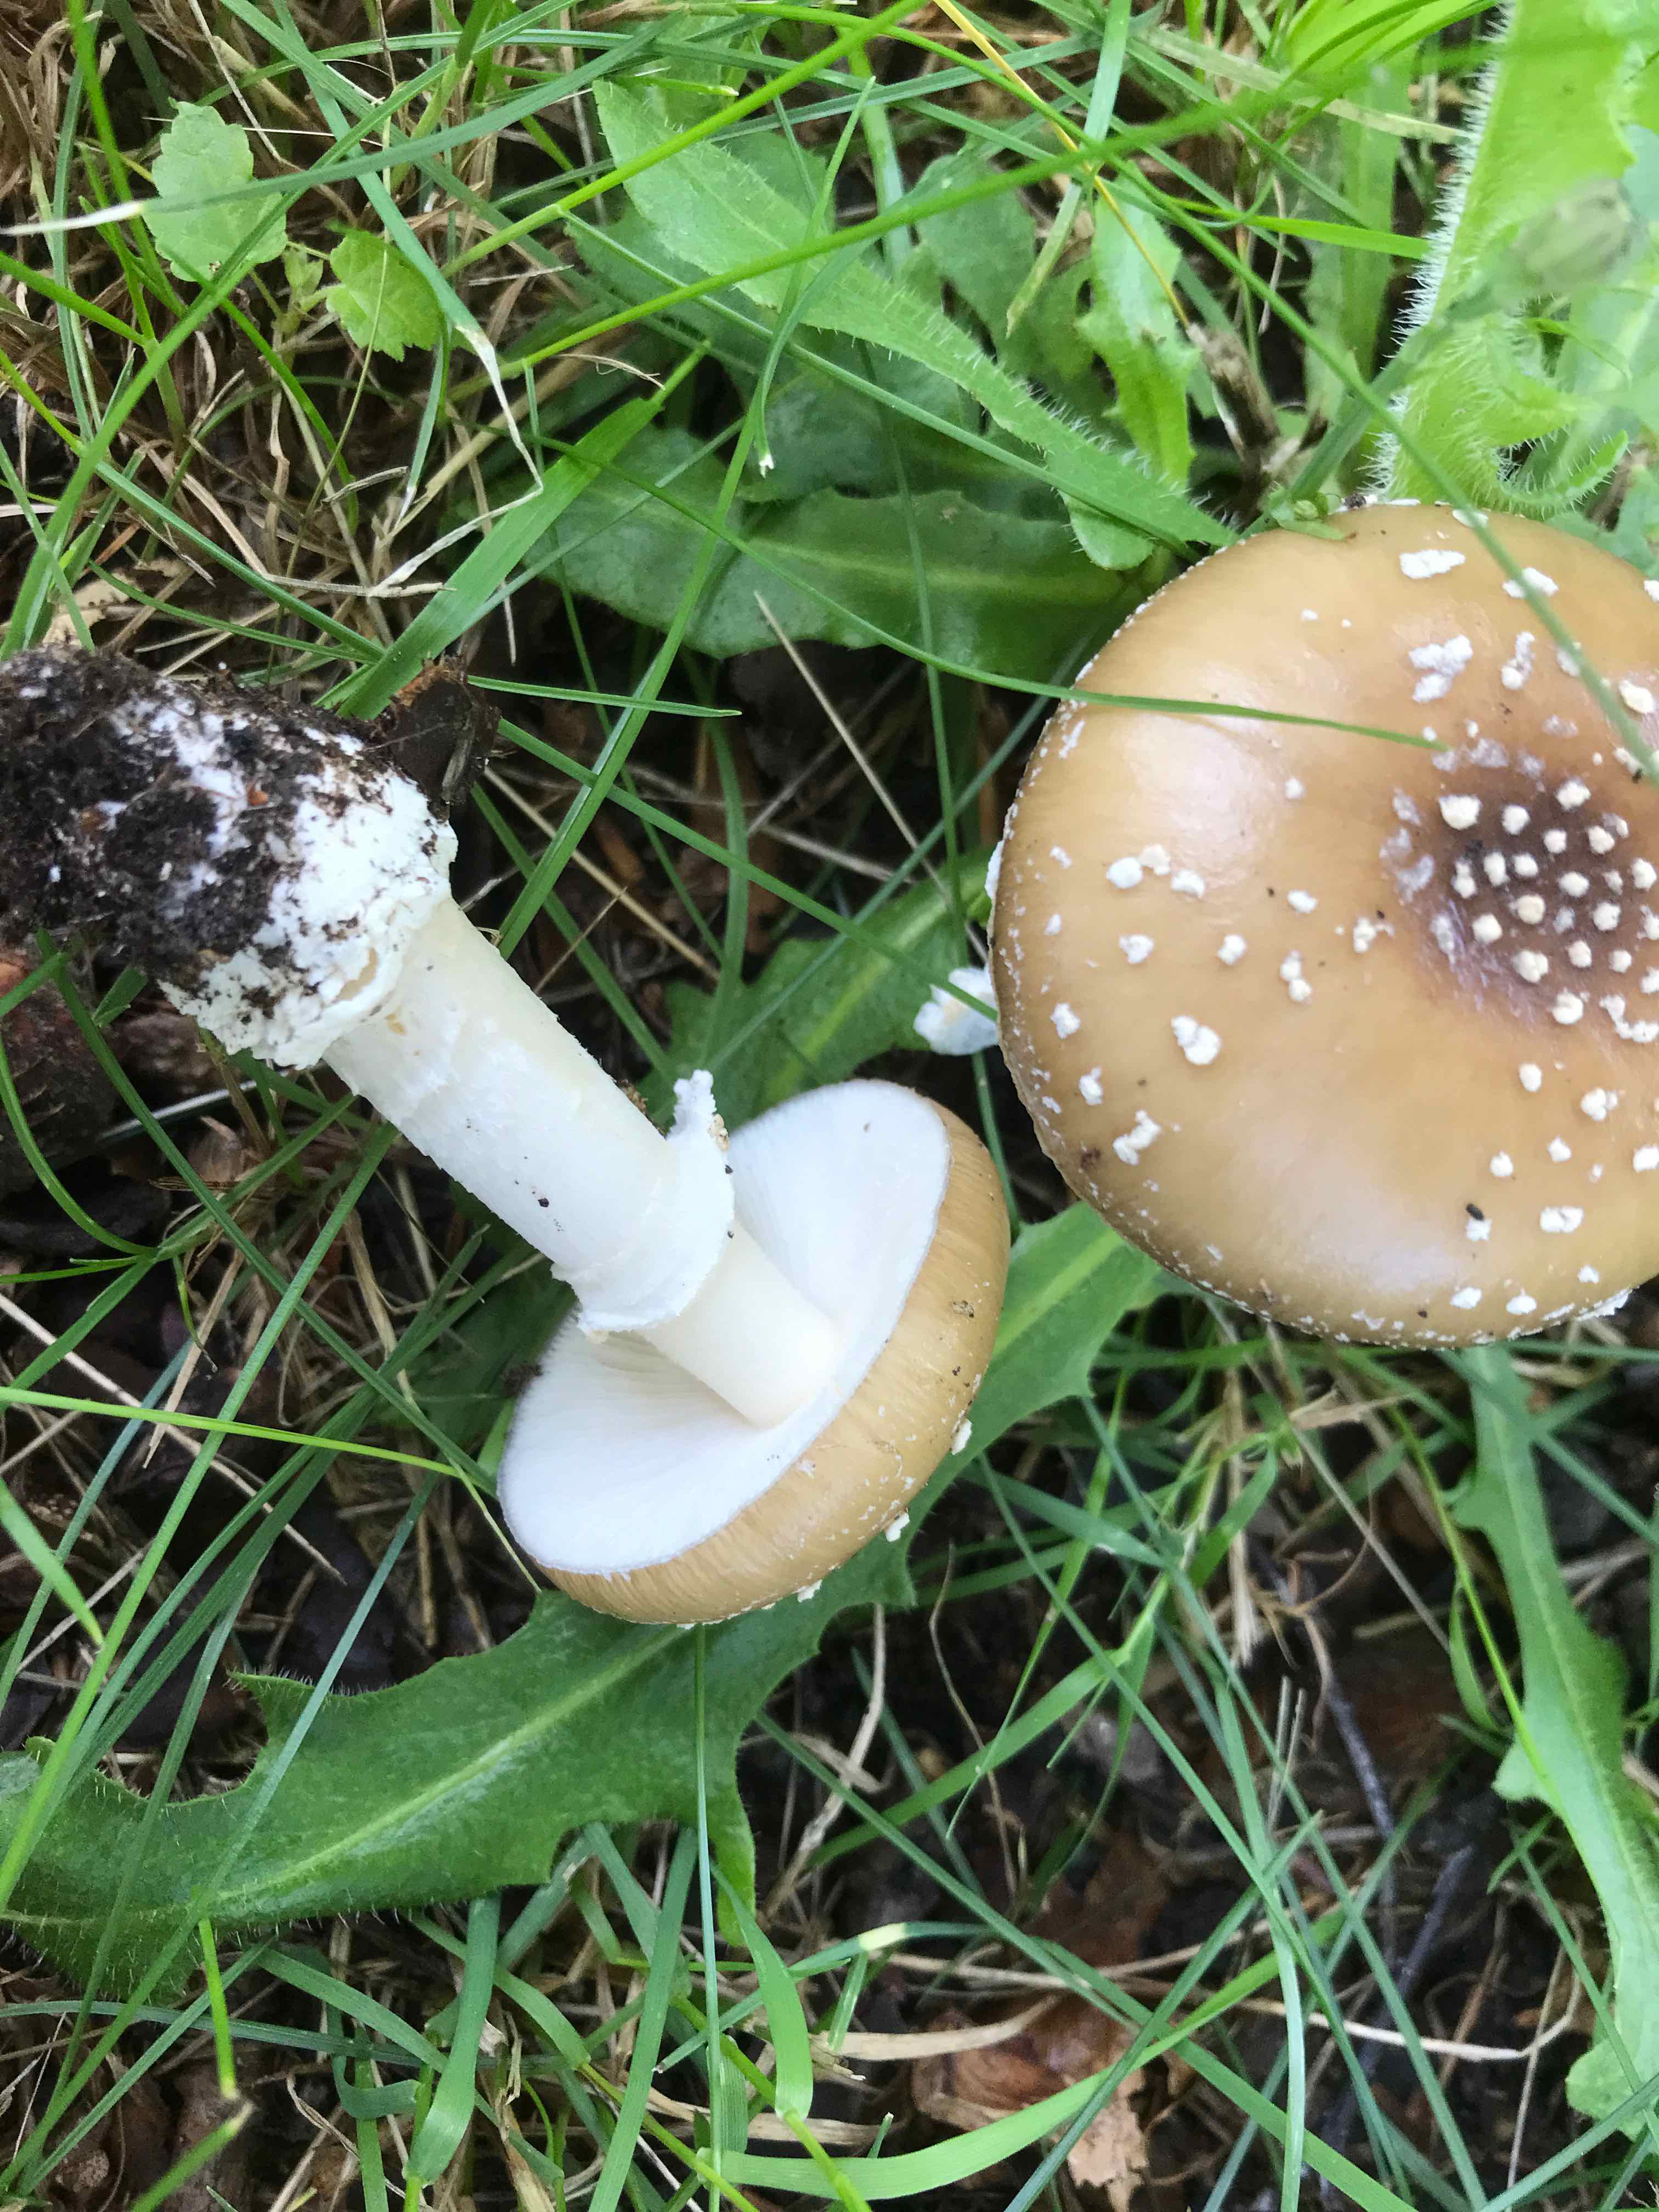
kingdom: Fungi
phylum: Basidiomycota
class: Agaricomycetes
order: Agaricales
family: Amanitaceae
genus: Amanita
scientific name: Amanita pantherina
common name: panter-fluesvamp
